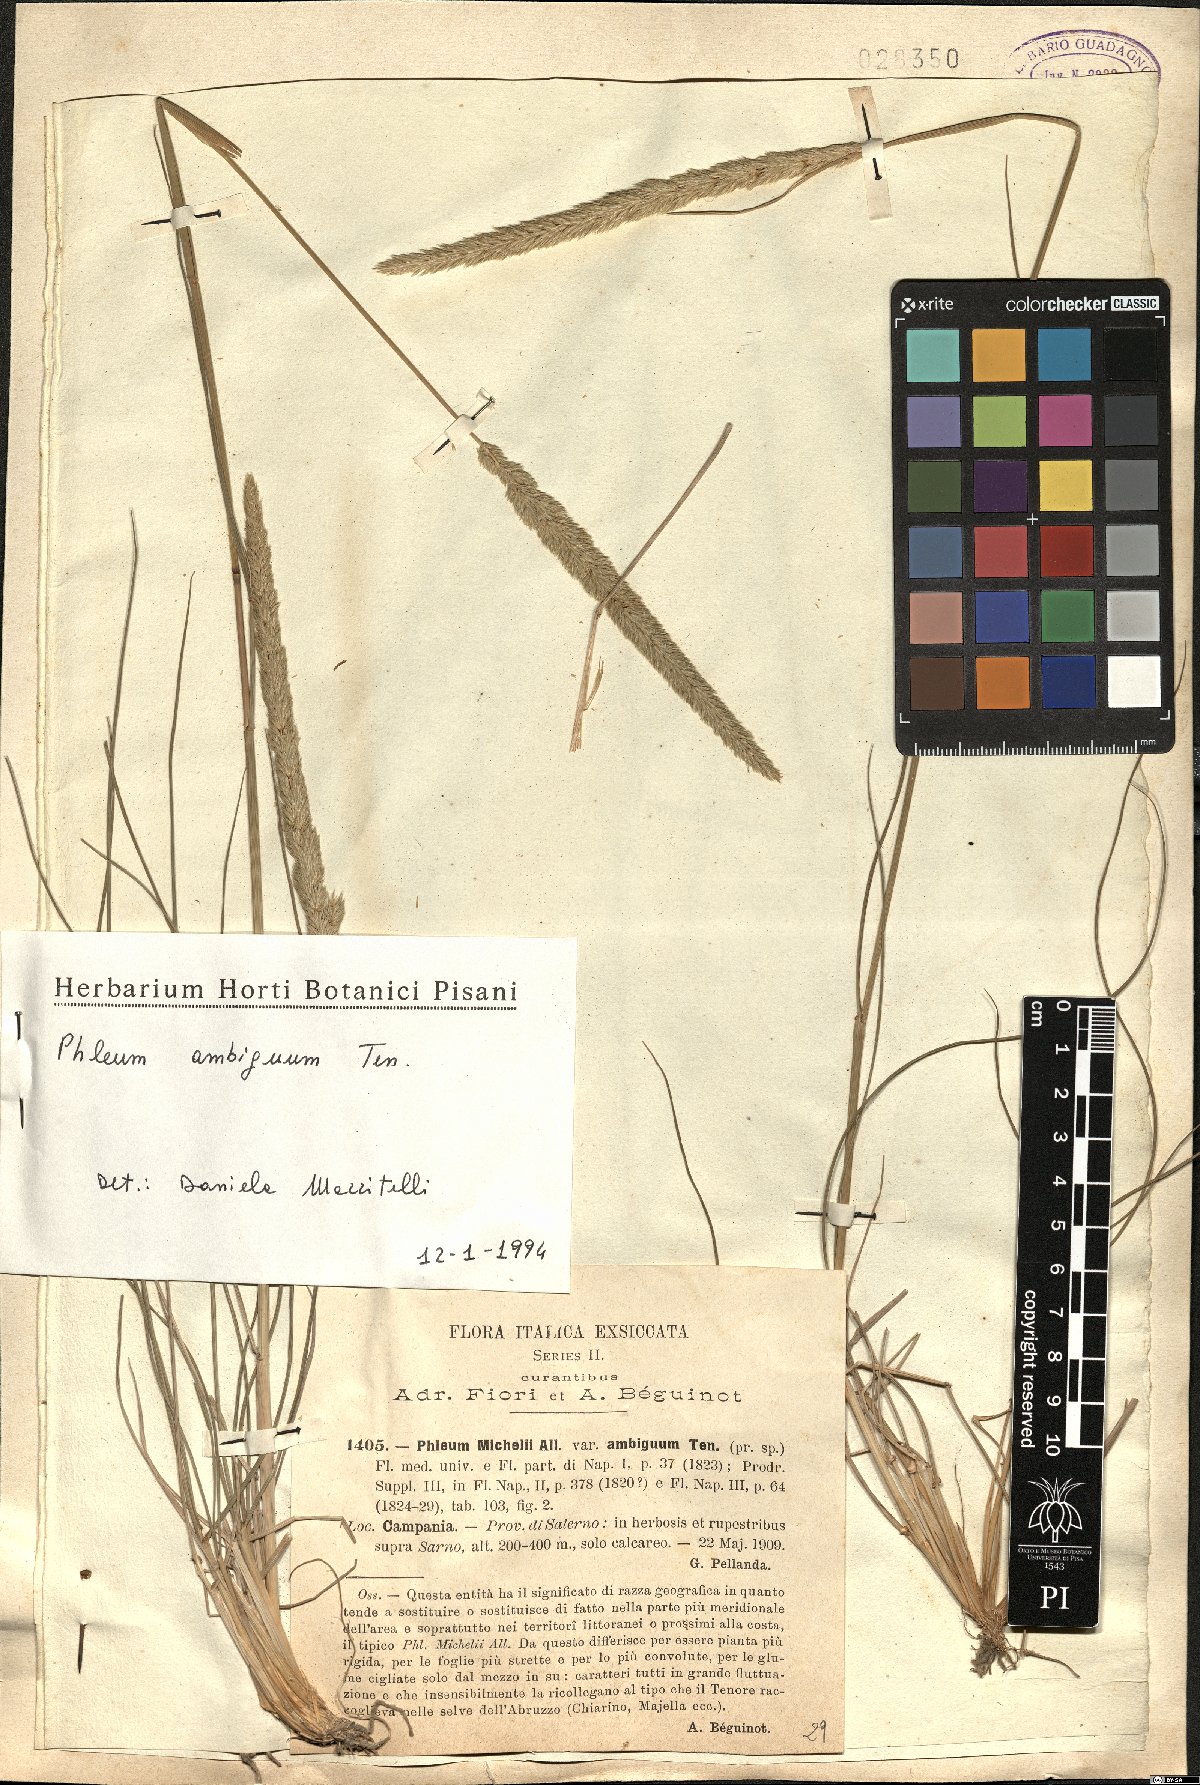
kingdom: Plantae
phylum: Tracheophyta
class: Liliopsida
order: Poales
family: Poaceae
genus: Phleum
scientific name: Phleum hirsutum
